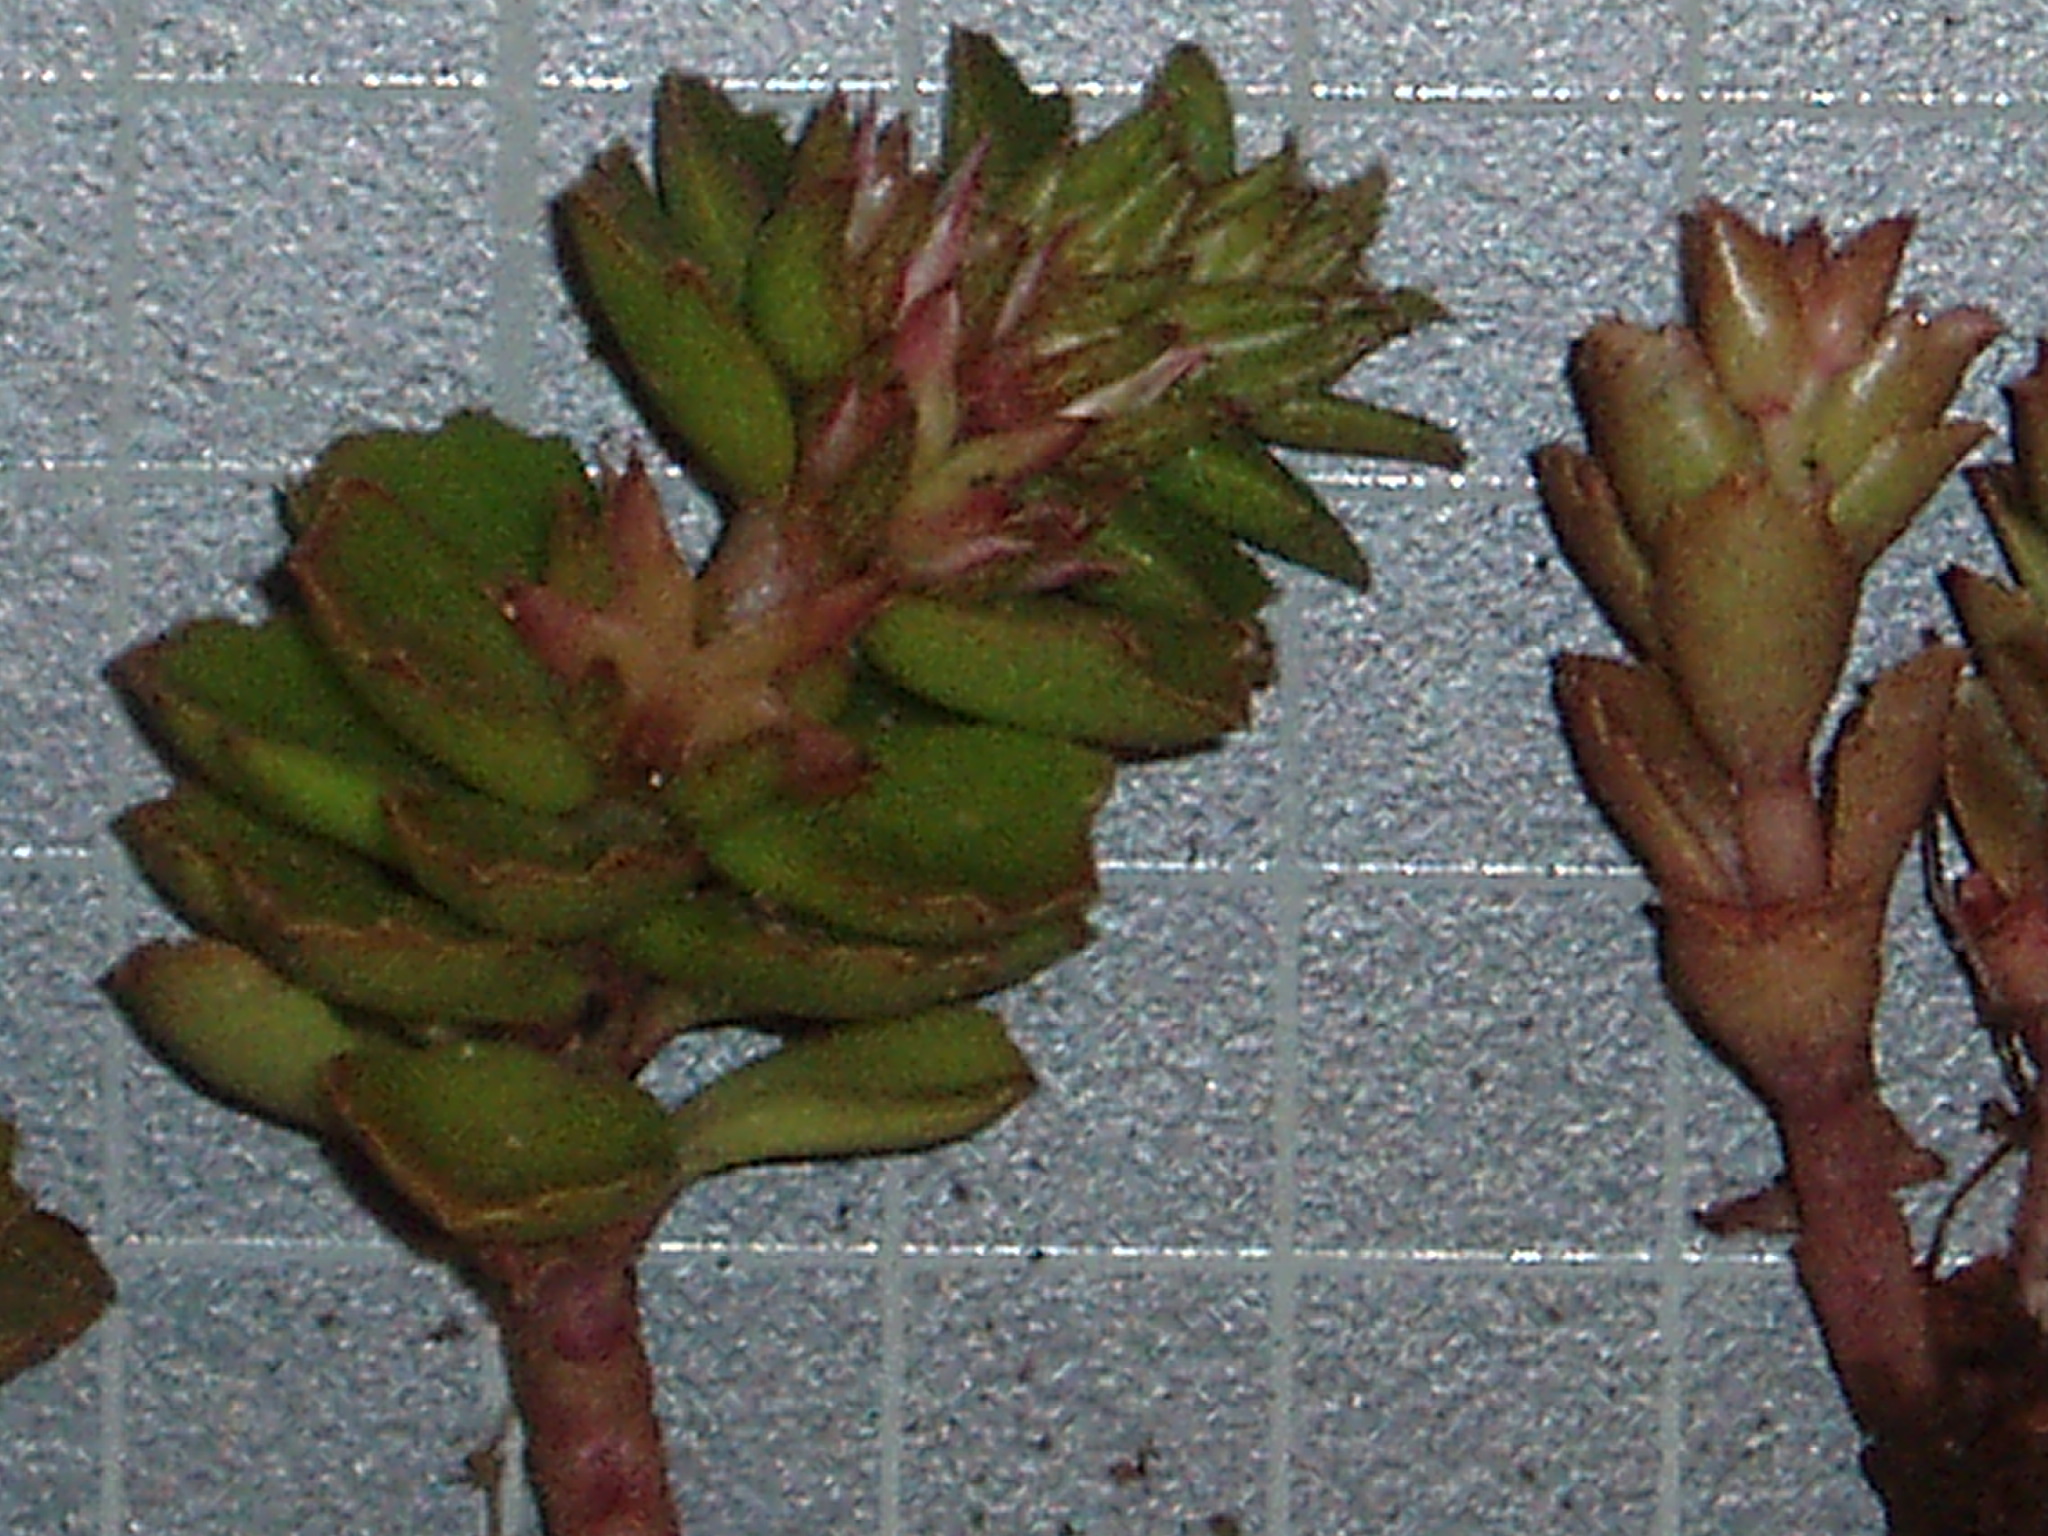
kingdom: Plantae
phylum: Tracheophyta
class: Magnoliopsida
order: Saxifragales
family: Crassulaceae
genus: Phedimus
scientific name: Phedimus stellatus
